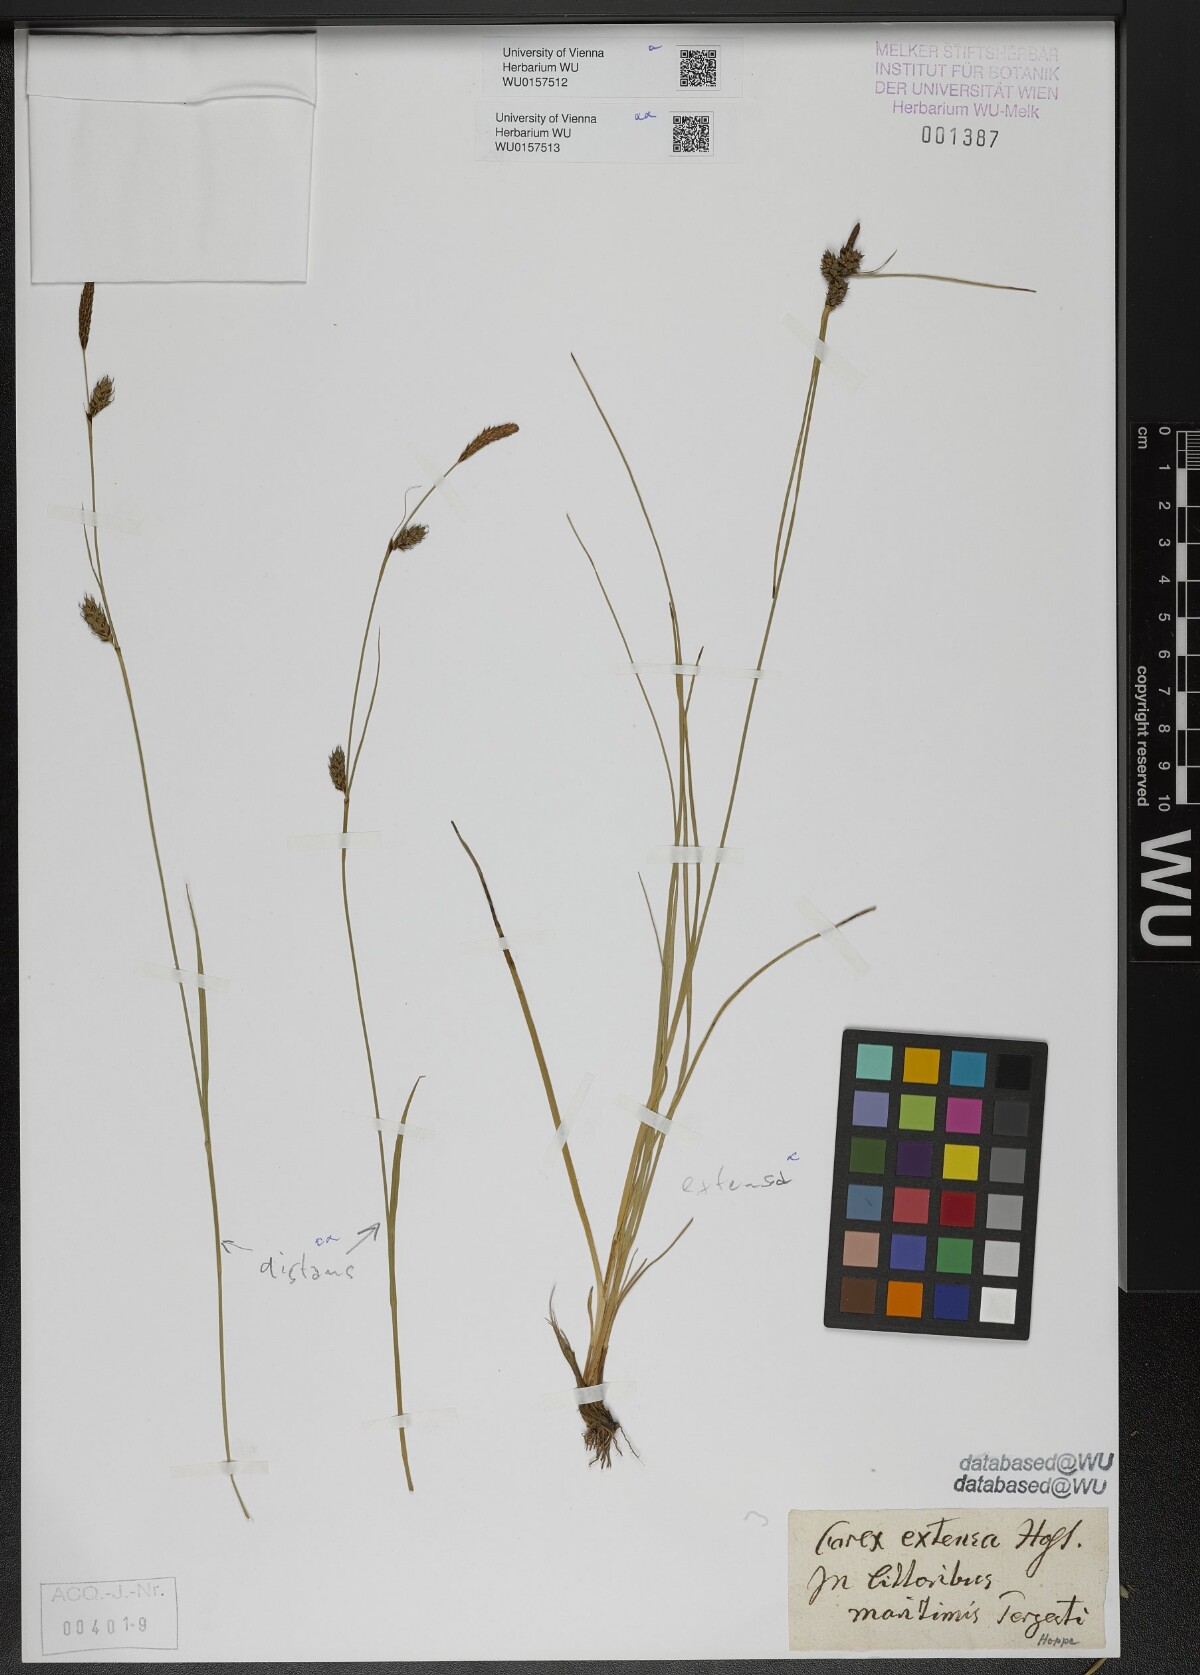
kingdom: Plantae
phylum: Tracheophyta
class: Liliopsida
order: Poales
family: Cyperaceae
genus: Carex
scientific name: Carex extensa
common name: Long-bracted sedge
